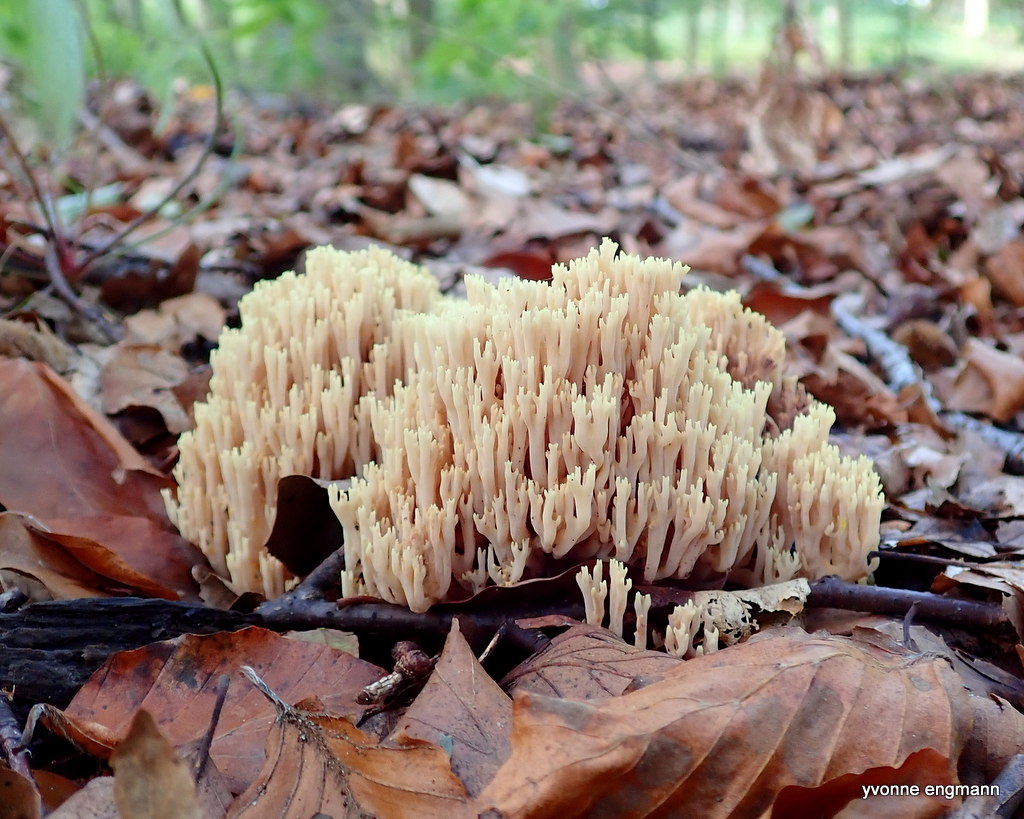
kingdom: Fungi
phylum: Basidiomycota
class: Agaricomycetes
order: Gomphales
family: Gomphaceae
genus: Ramaria
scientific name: Ramaria stricta
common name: rank koralsvamp
